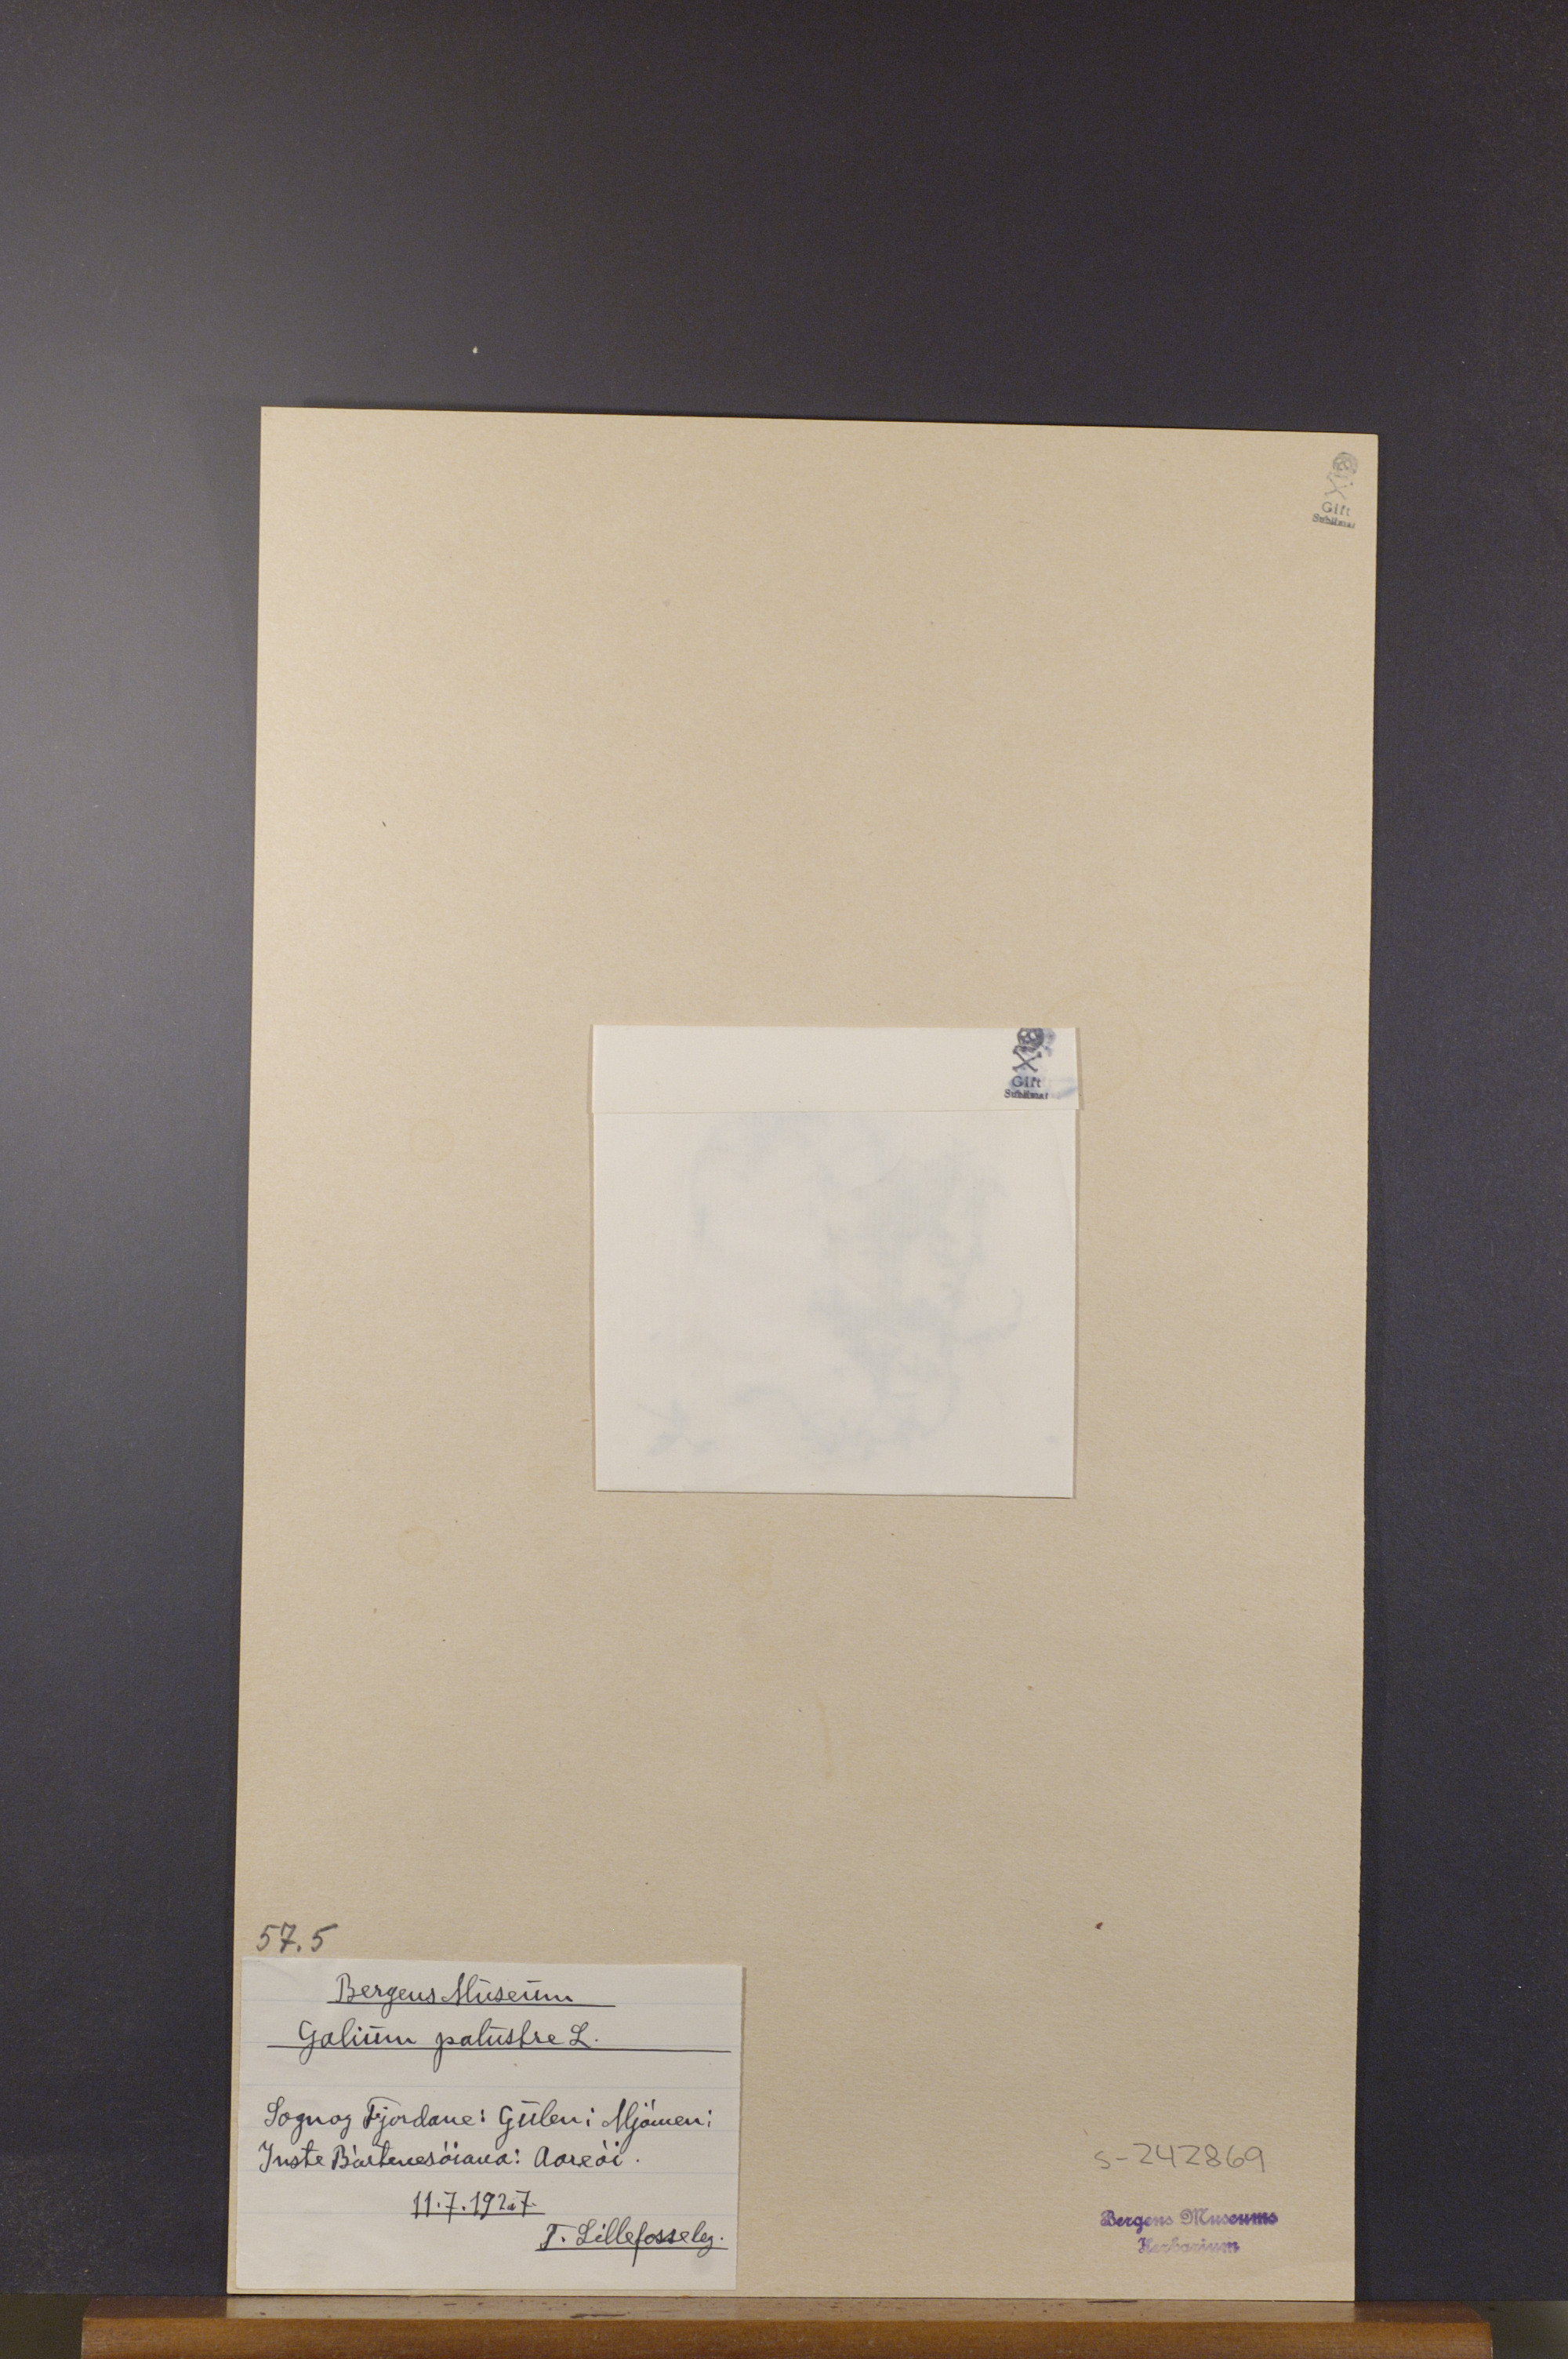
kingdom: Plantae
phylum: Tracheophyta
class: Magnoliopsida
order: Gentianales
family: Rubiaceae
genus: Galium
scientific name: Galium palustre
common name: Common marsh-bedstraw
